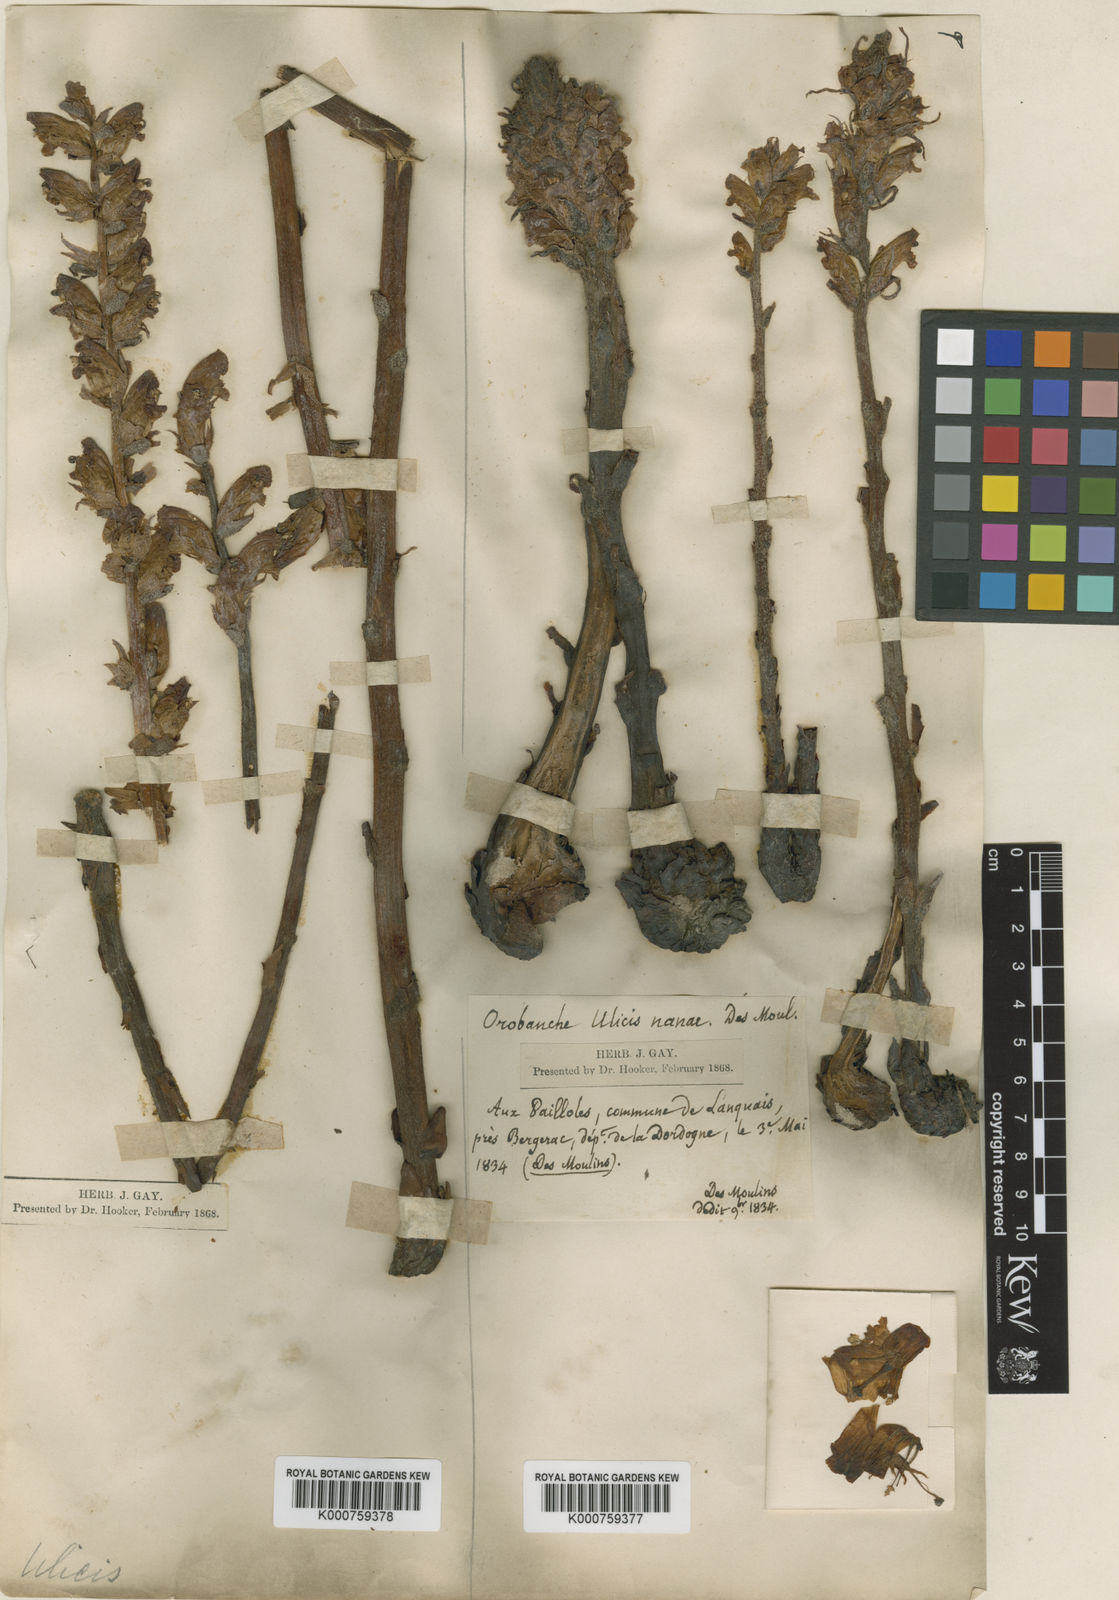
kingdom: Plantae
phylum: Tracheophyta
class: Magnoliopsida
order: Lamiales
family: Orobanchaceae
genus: Orobanche
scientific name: Orobanche gracilis
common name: Slender broomrape
